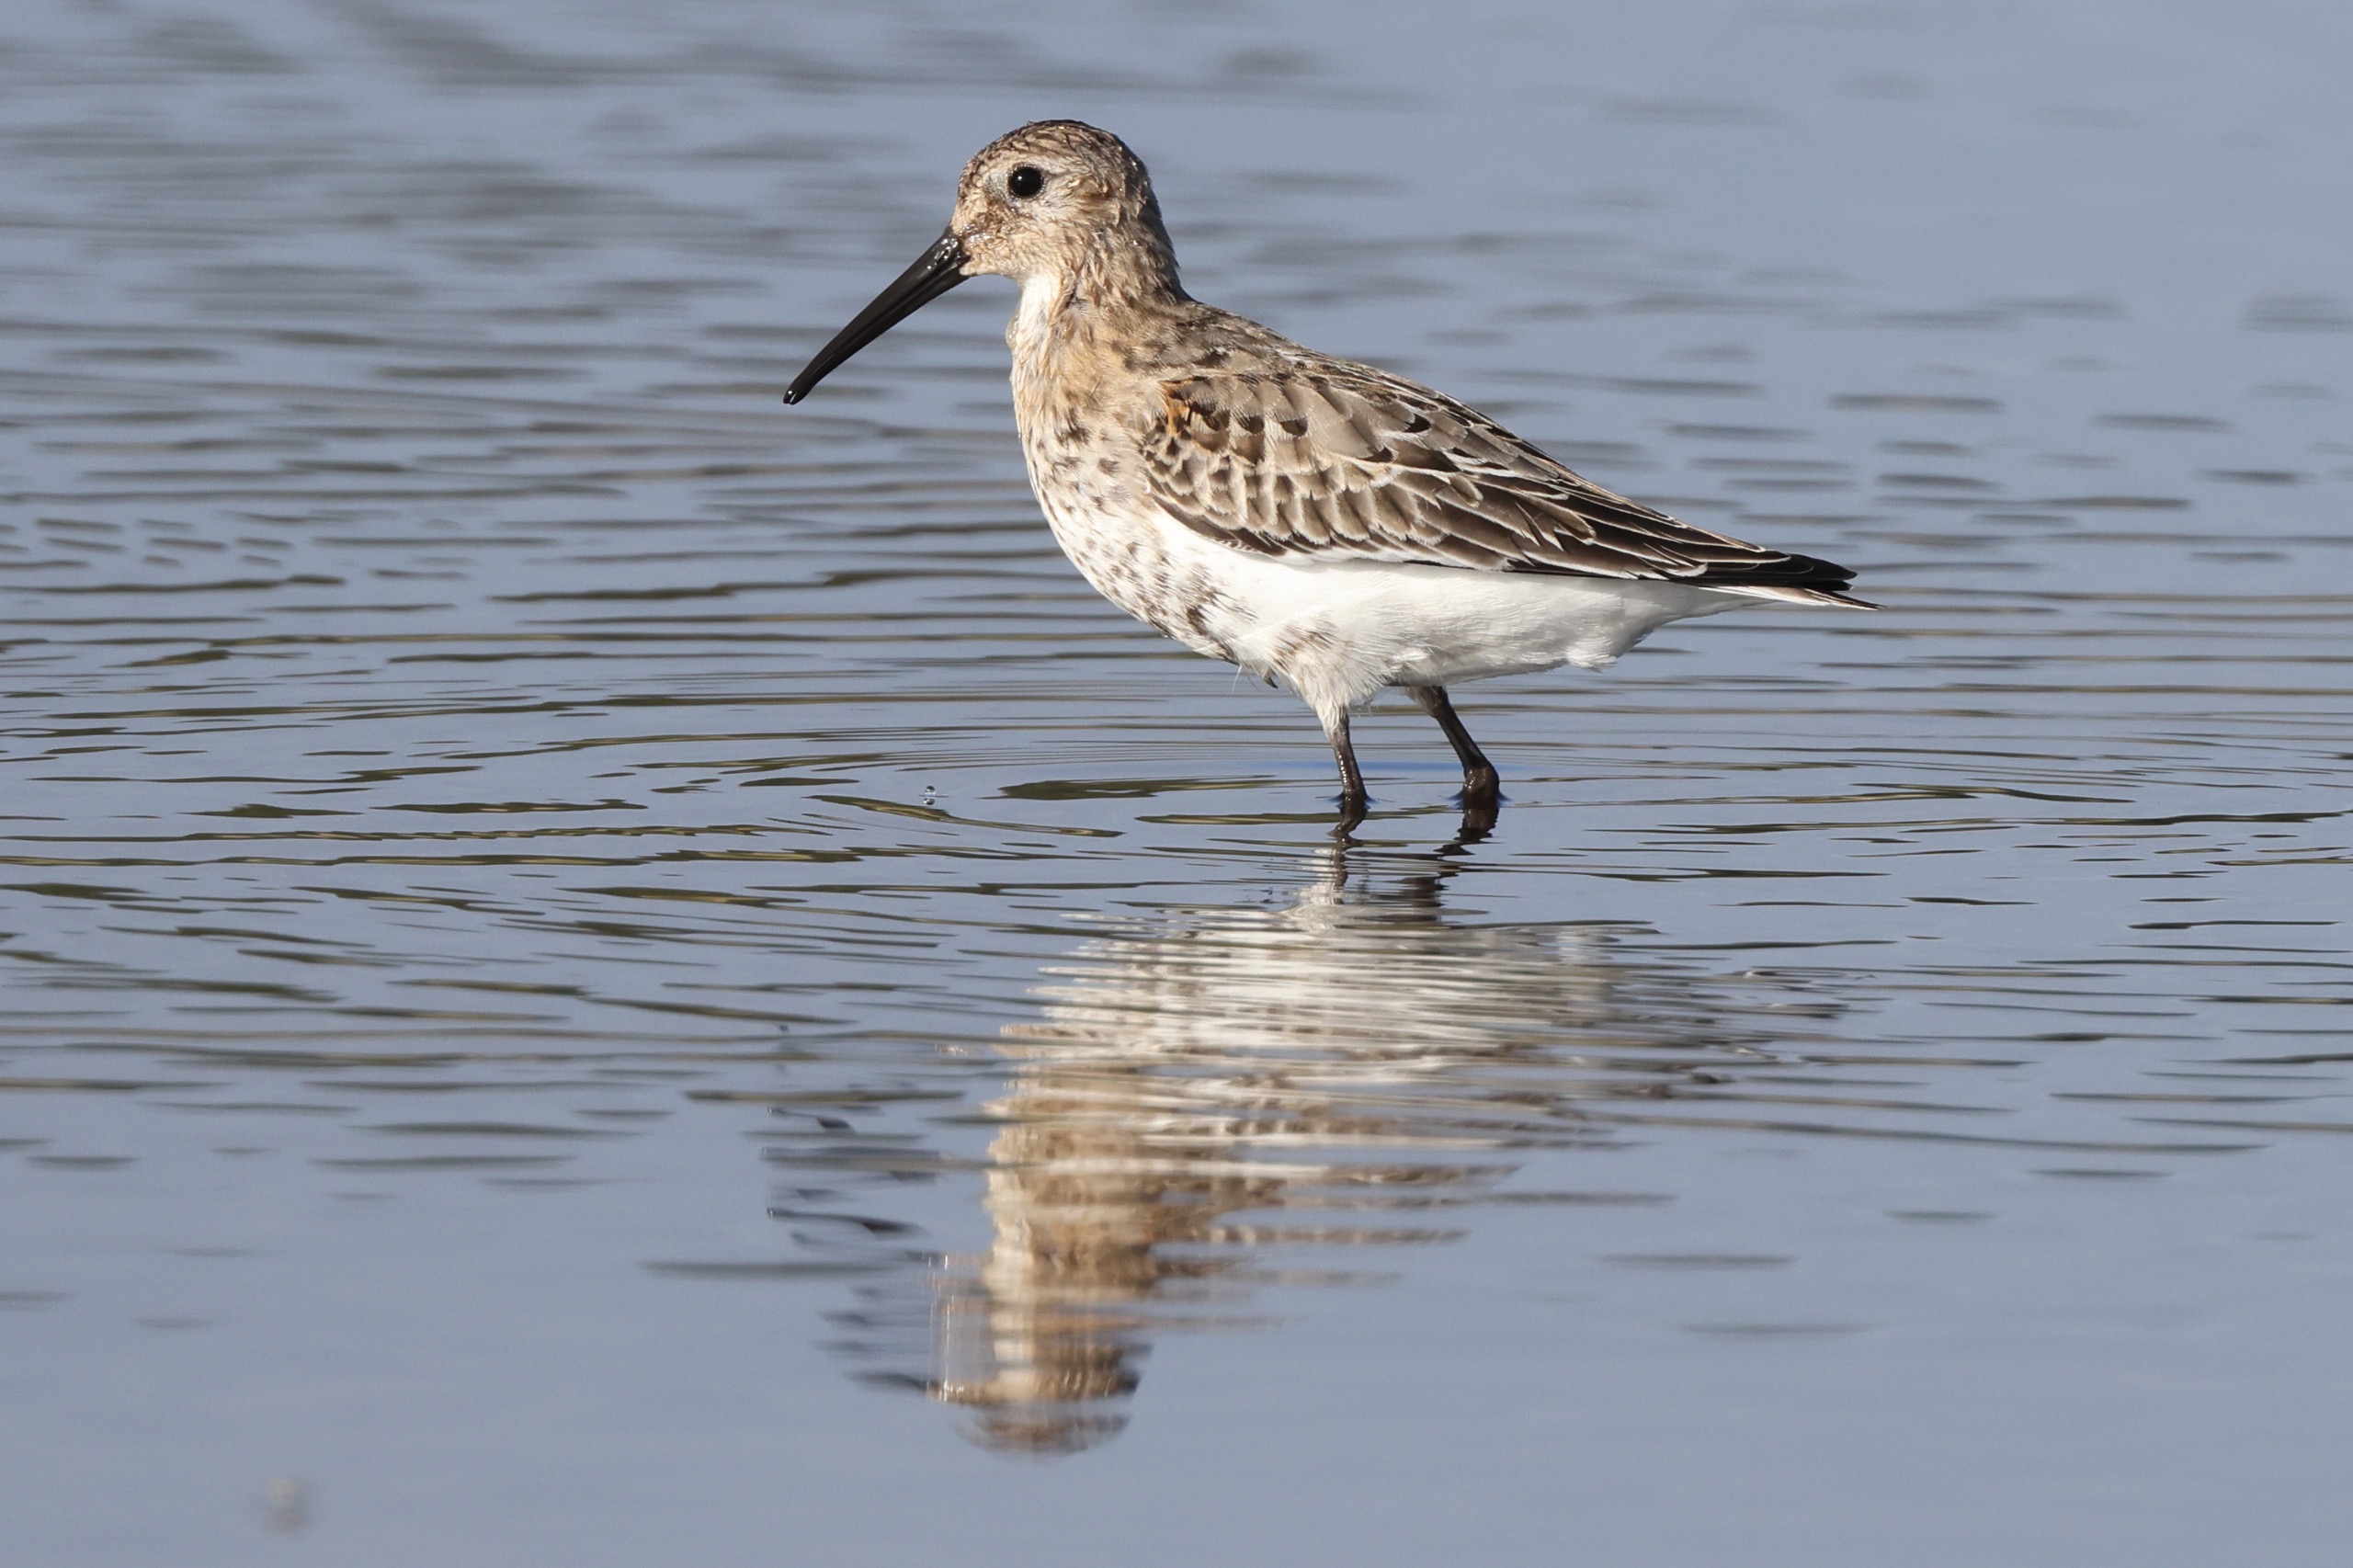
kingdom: Animalia
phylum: Chordata
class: Aves
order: Charadriiformes
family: Scolopacidae
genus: Calidris
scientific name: Calidris alpina
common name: Almindelig ryle
